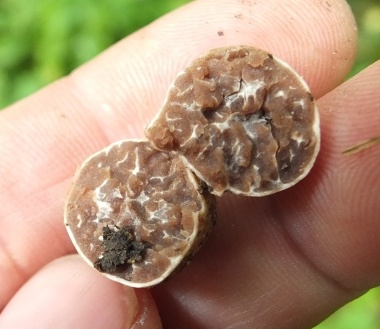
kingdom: Fungi
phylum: Ascomycota
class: Pezizomycetes
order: Pezizales
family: Tuberaceae
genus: Tuber
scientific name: Tuber maculatum
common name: plettet trøffel
